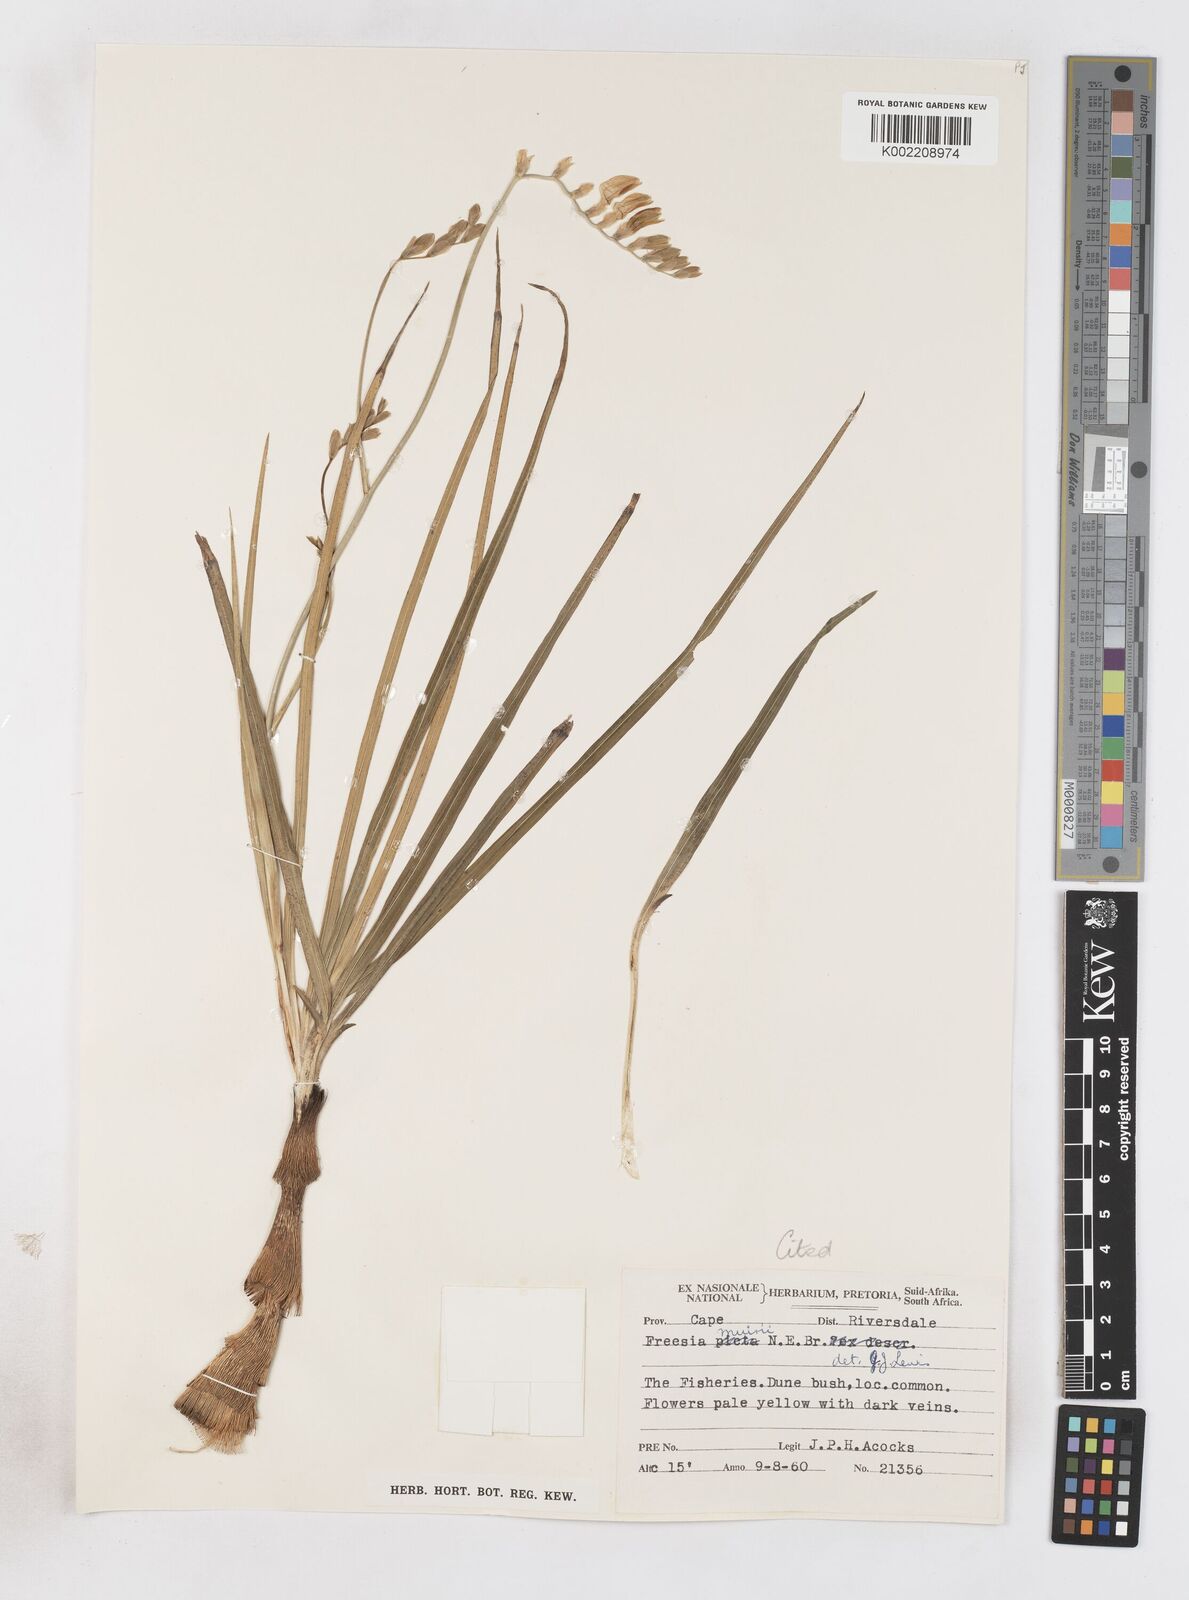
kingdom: Plantae
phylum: Tracheophyta
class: Liliopsida
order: Asparagales
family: Iridaceae
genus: Freesia
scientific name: Freesia refracta
